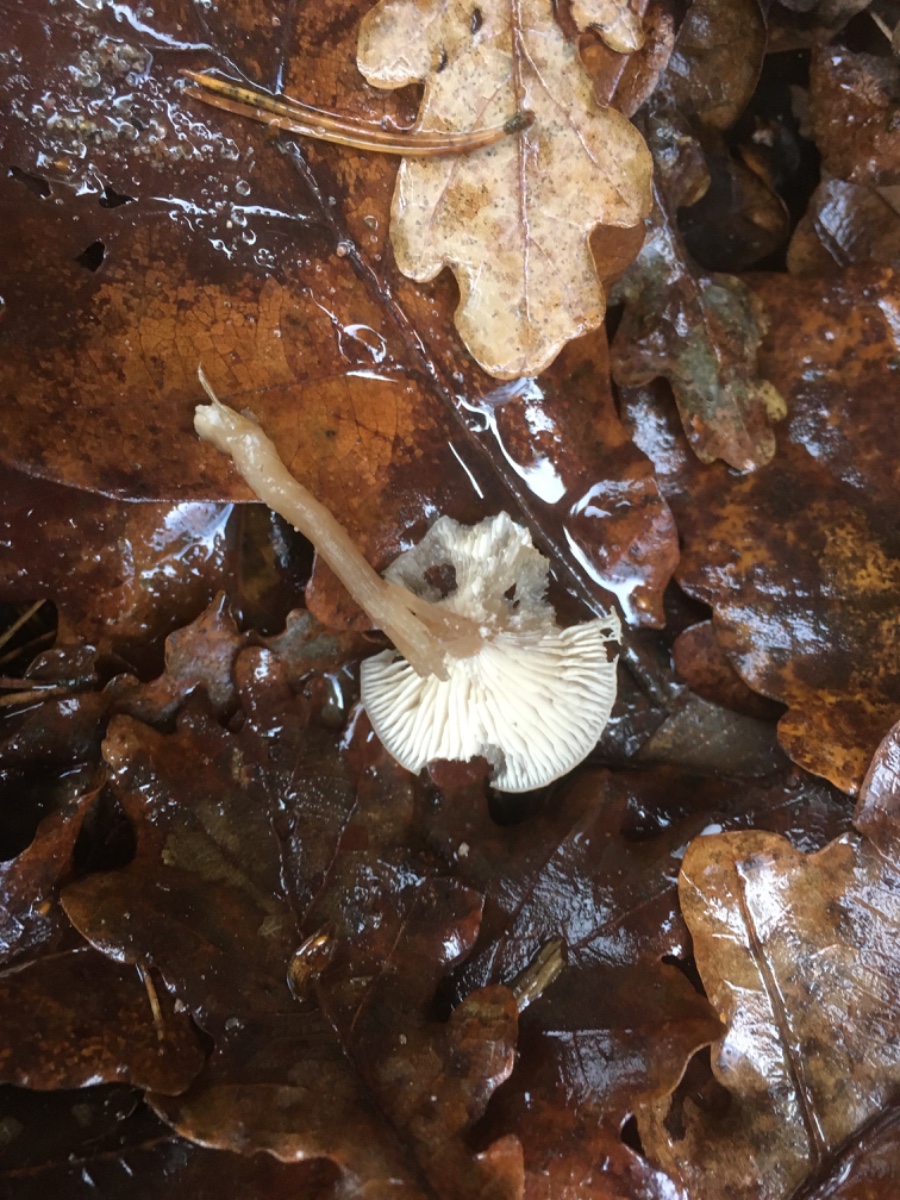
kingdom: Fungi
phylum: Basidiomycota
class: Agaricomycetes
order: Agaricales
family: Tricholomataceae
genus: Clitocybe
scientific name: Clitocybe fragrans
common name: vellugtende tragthat
